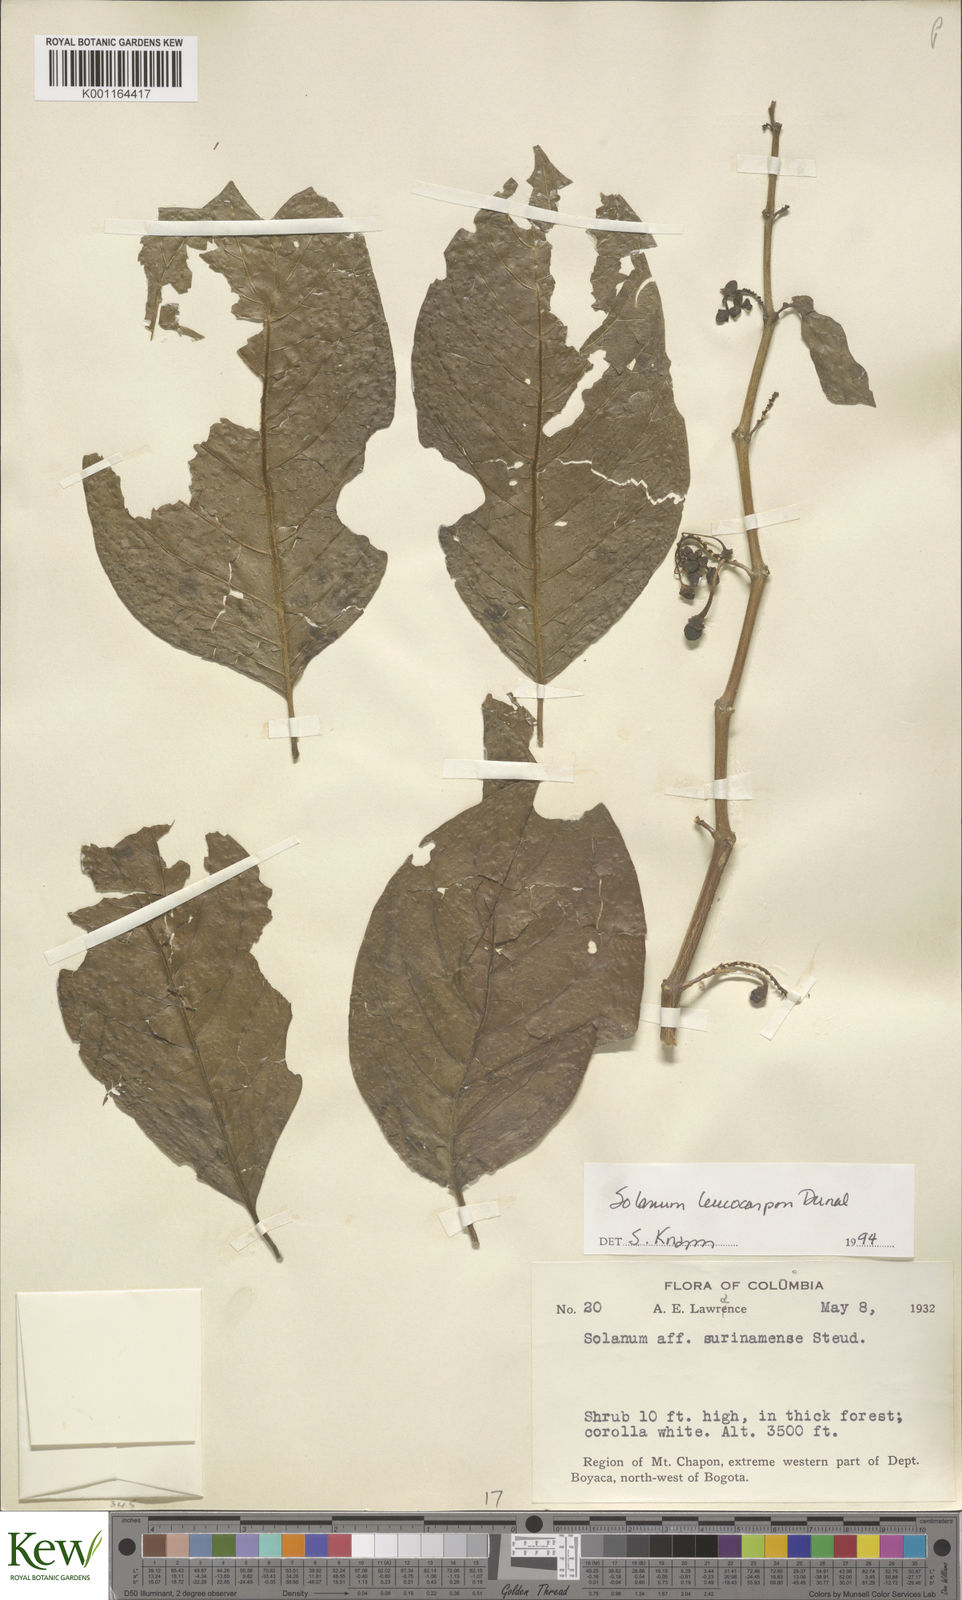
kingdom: Plantae
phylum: Tracheophyta
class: Magnoliopsida
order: Solanales
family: Solanaceae
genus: Solanum
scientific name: Solanum leucocarpon
